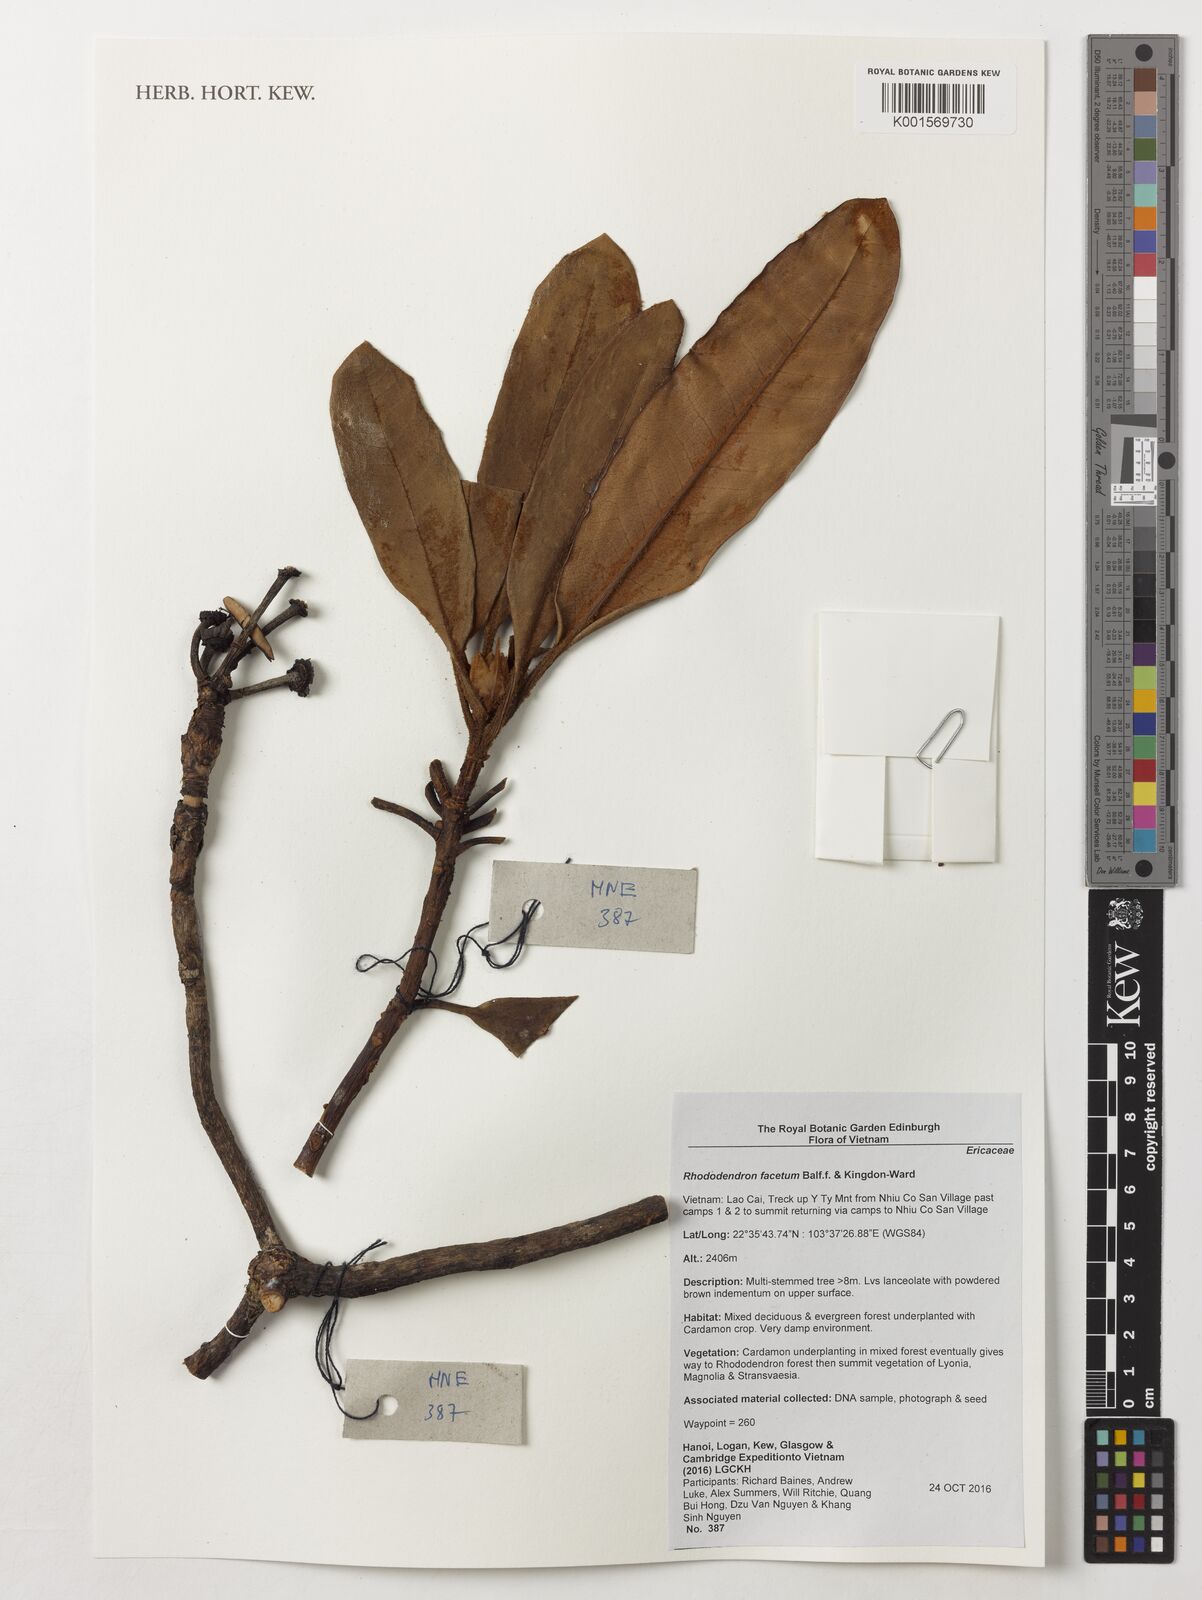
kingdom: Plantae
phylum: Tracheophyta
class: Magnoliopsida
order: Ericales
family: Ericaceae
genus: Rhododendron
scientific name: Rhododendron facetum
